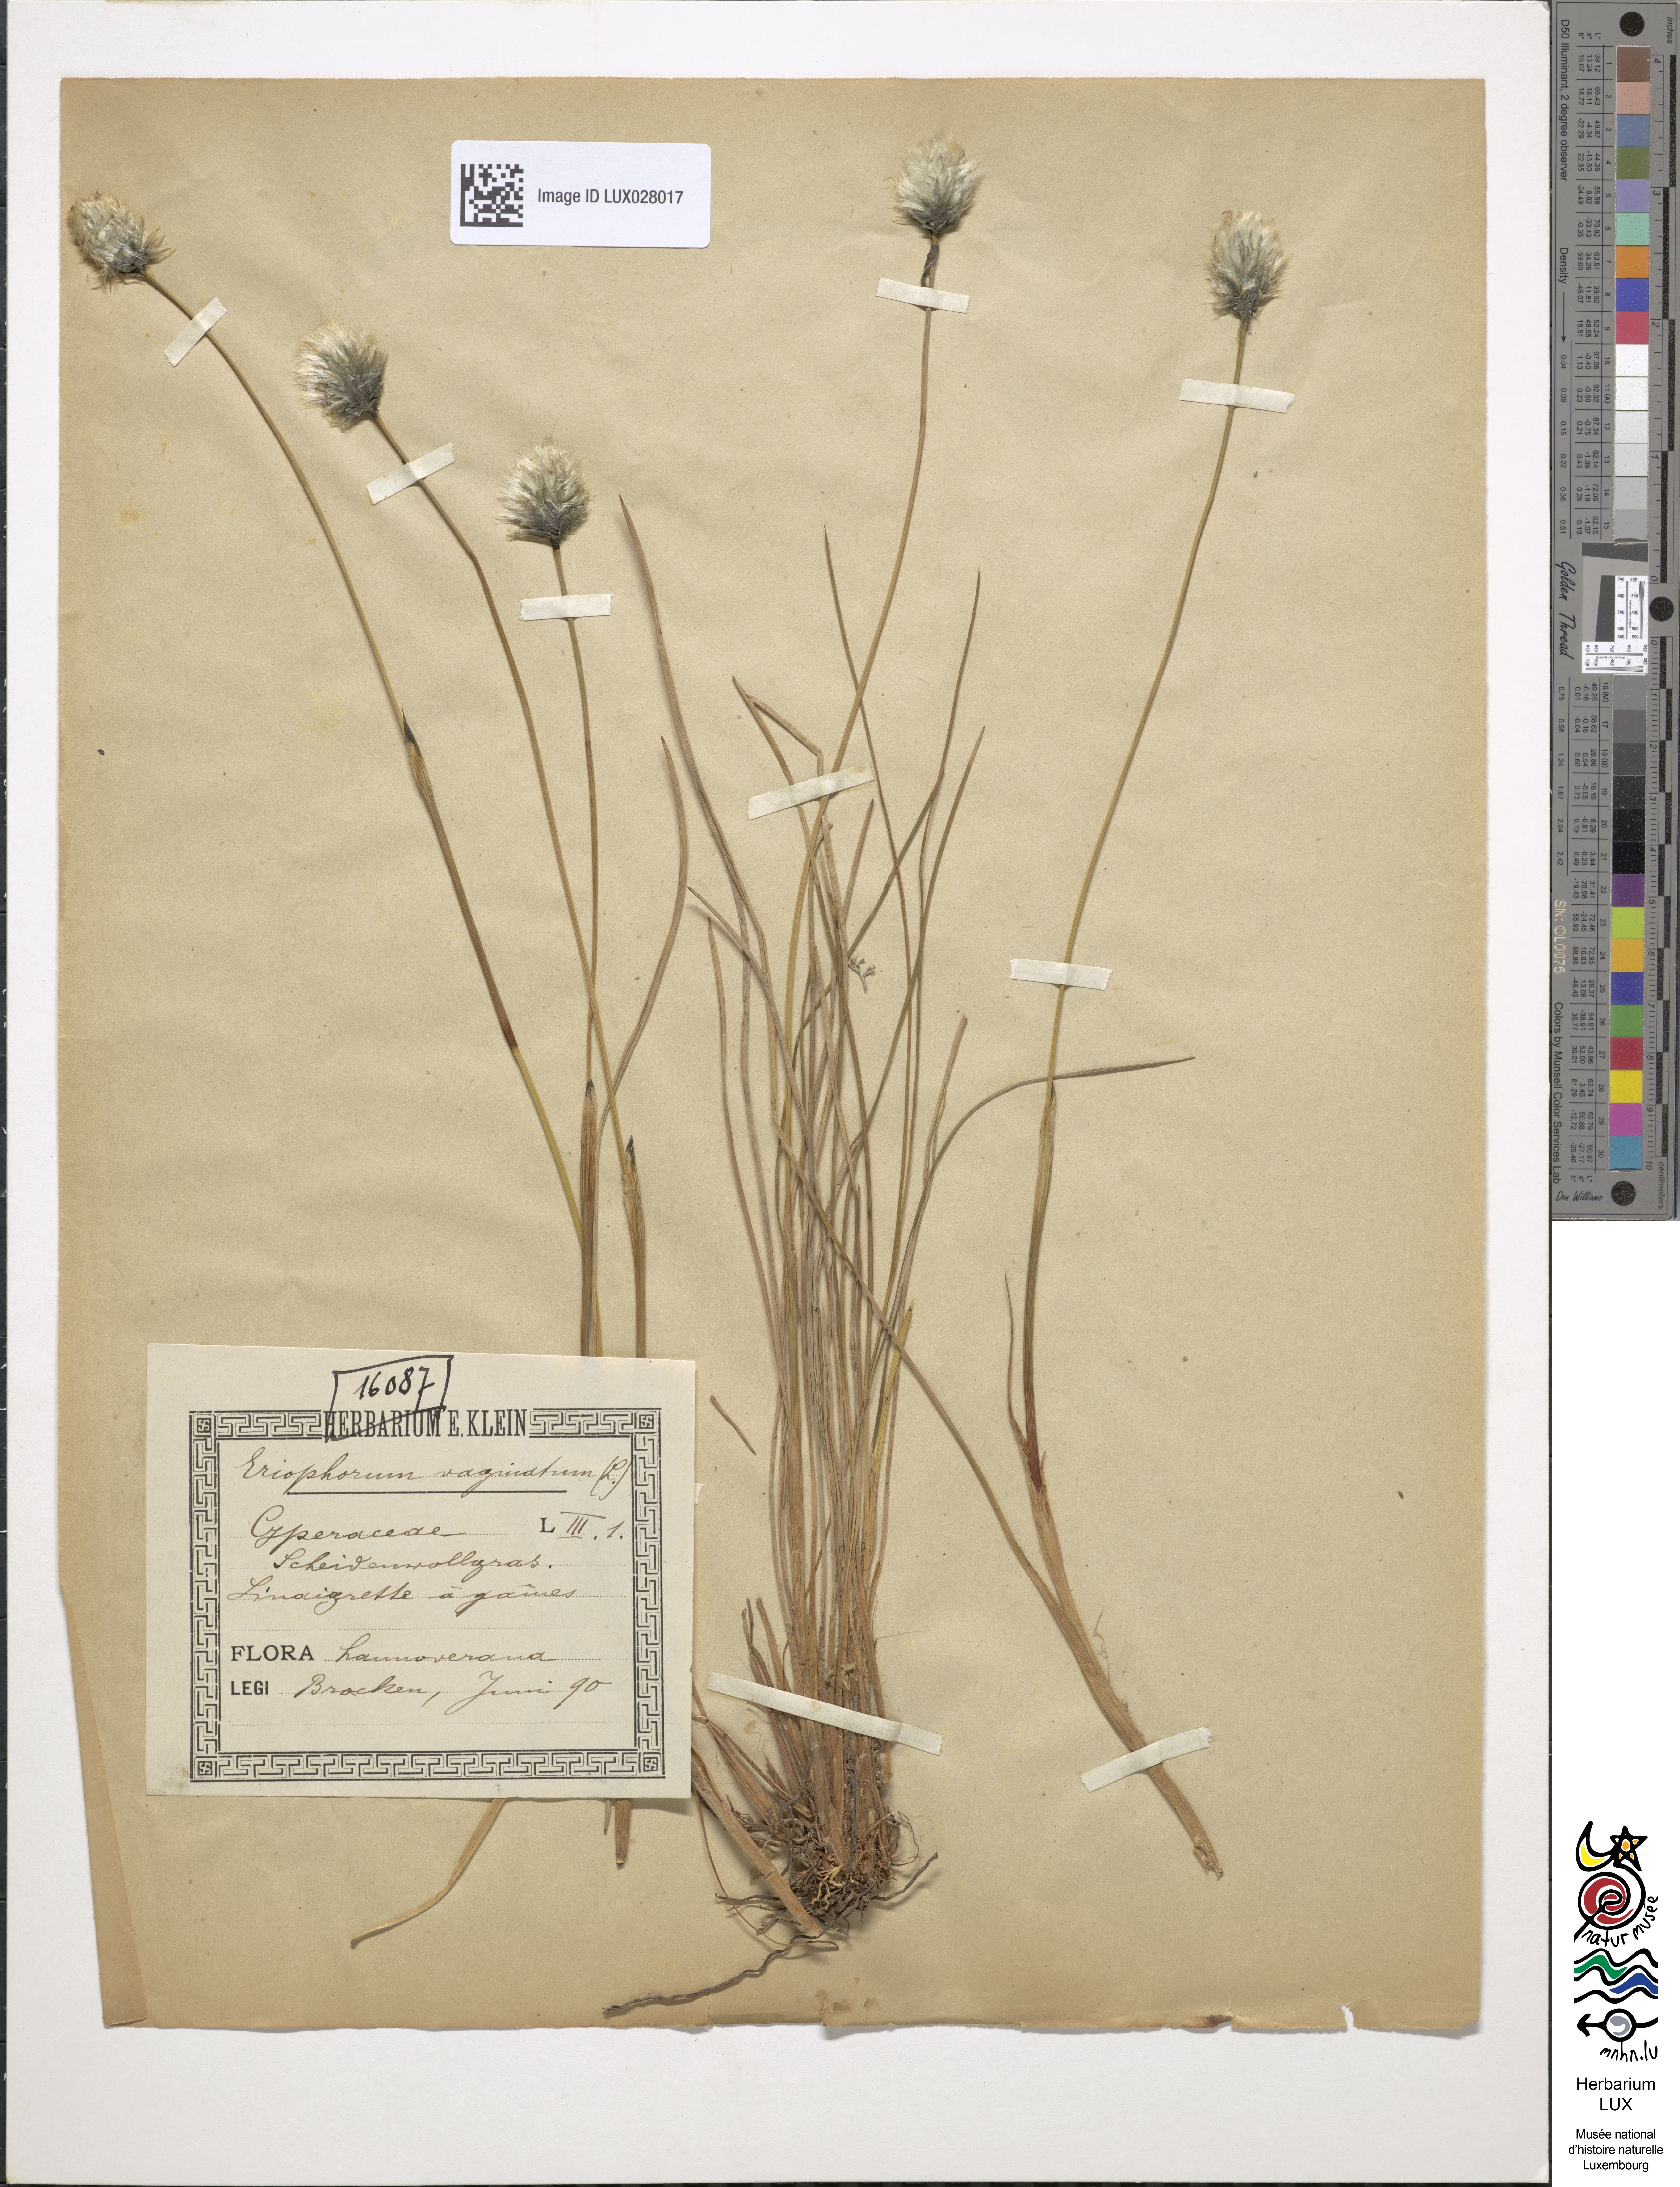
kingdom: Plantae
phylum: Tracheophyta
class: Liliopsida
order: Poales
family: Cyperaceae
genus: Eriophorum
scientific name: Eriophorum vaginatum
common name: Hare's-tail cottongrass
